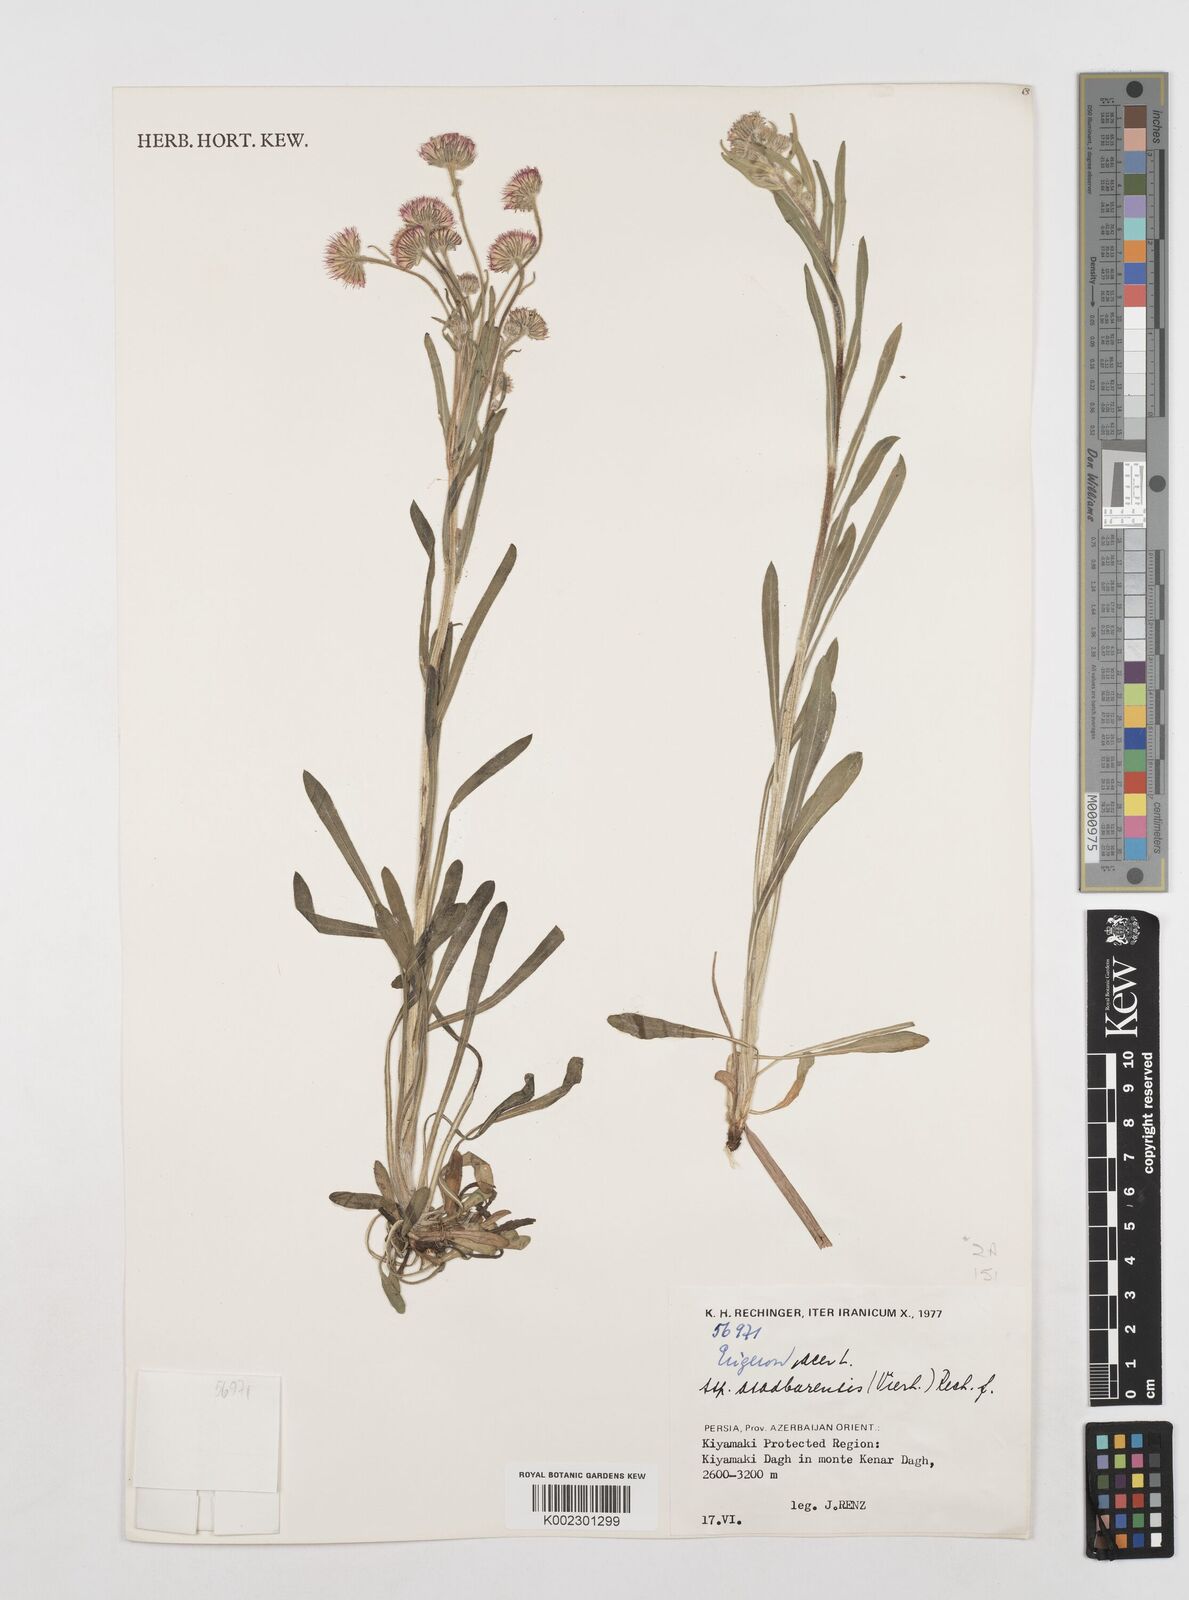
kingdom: Plantae
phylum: Tracheophyta
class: Magnoliopsida
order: Asterales
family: Asteraceae
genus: Erigeron
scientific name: Erigeron acris
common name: Blue fleabane
